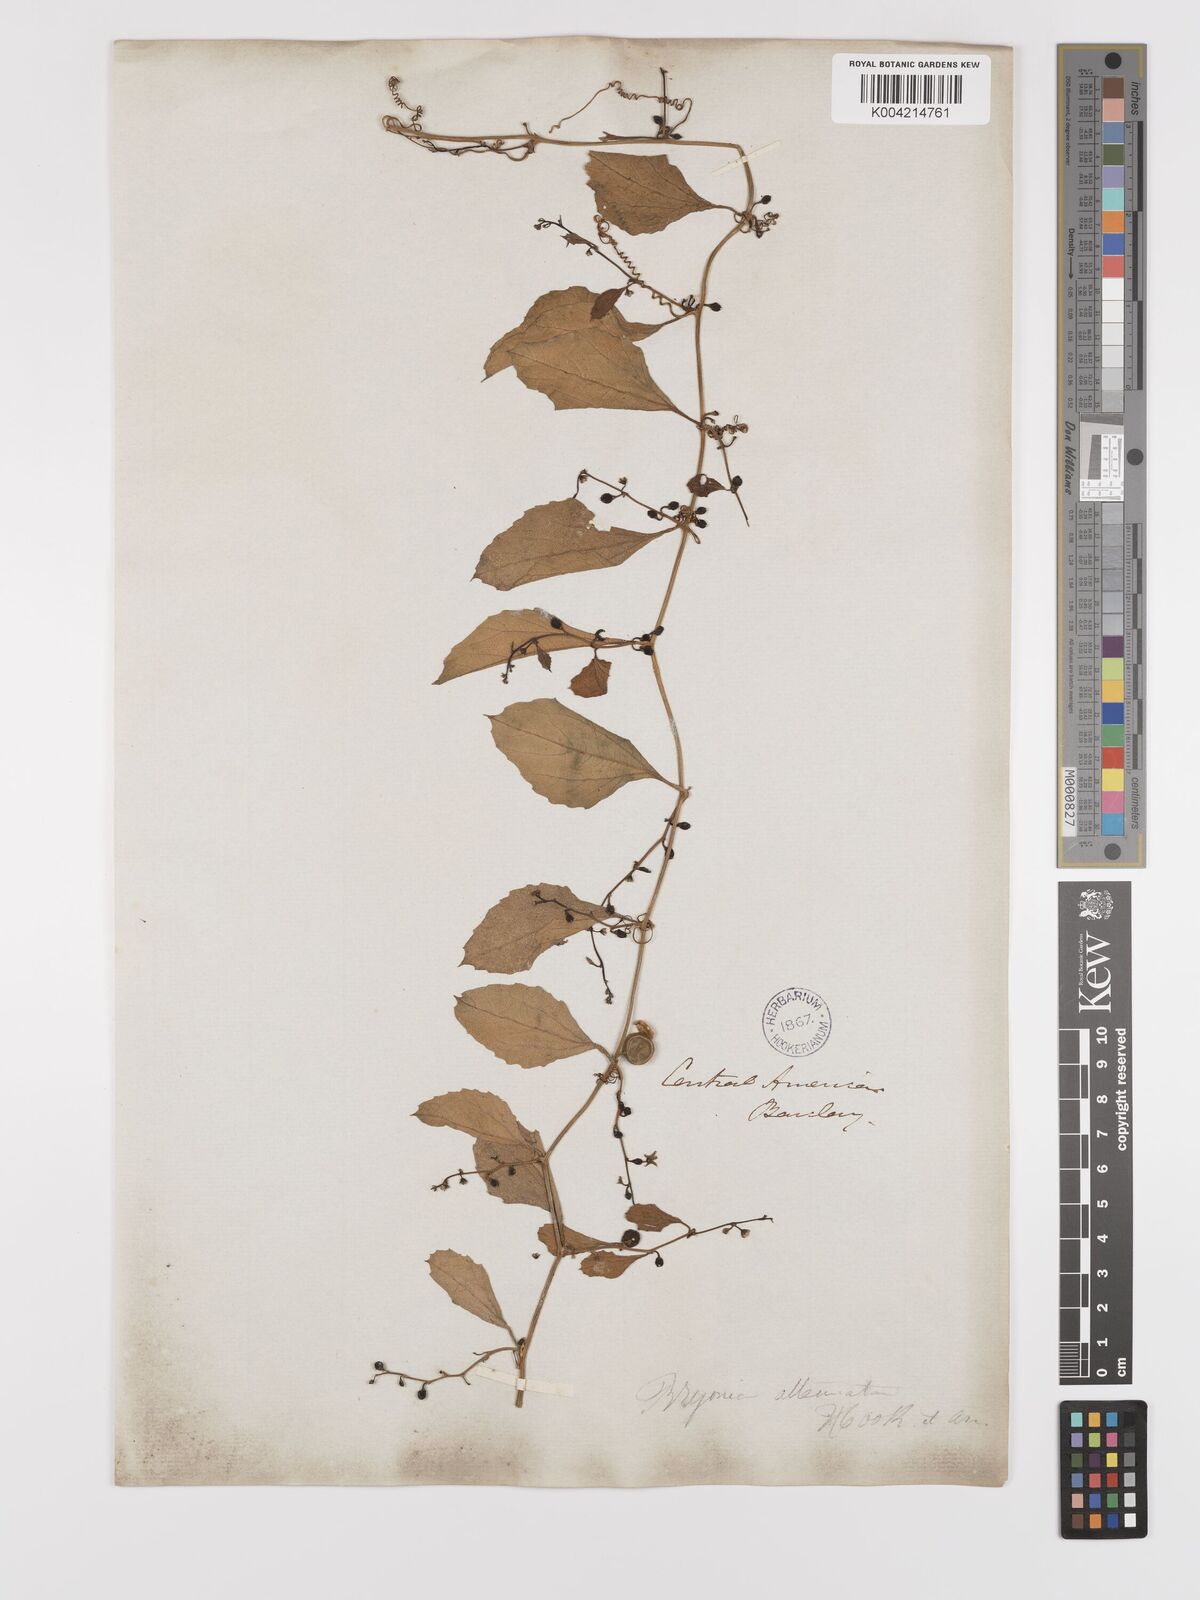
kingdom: Plantae
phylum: Tracheophyta
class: Magnoliopsida
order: Cucurbitales
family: Cucurbitaceae
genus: Cayaponia
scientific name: Cayaponia attenuata
